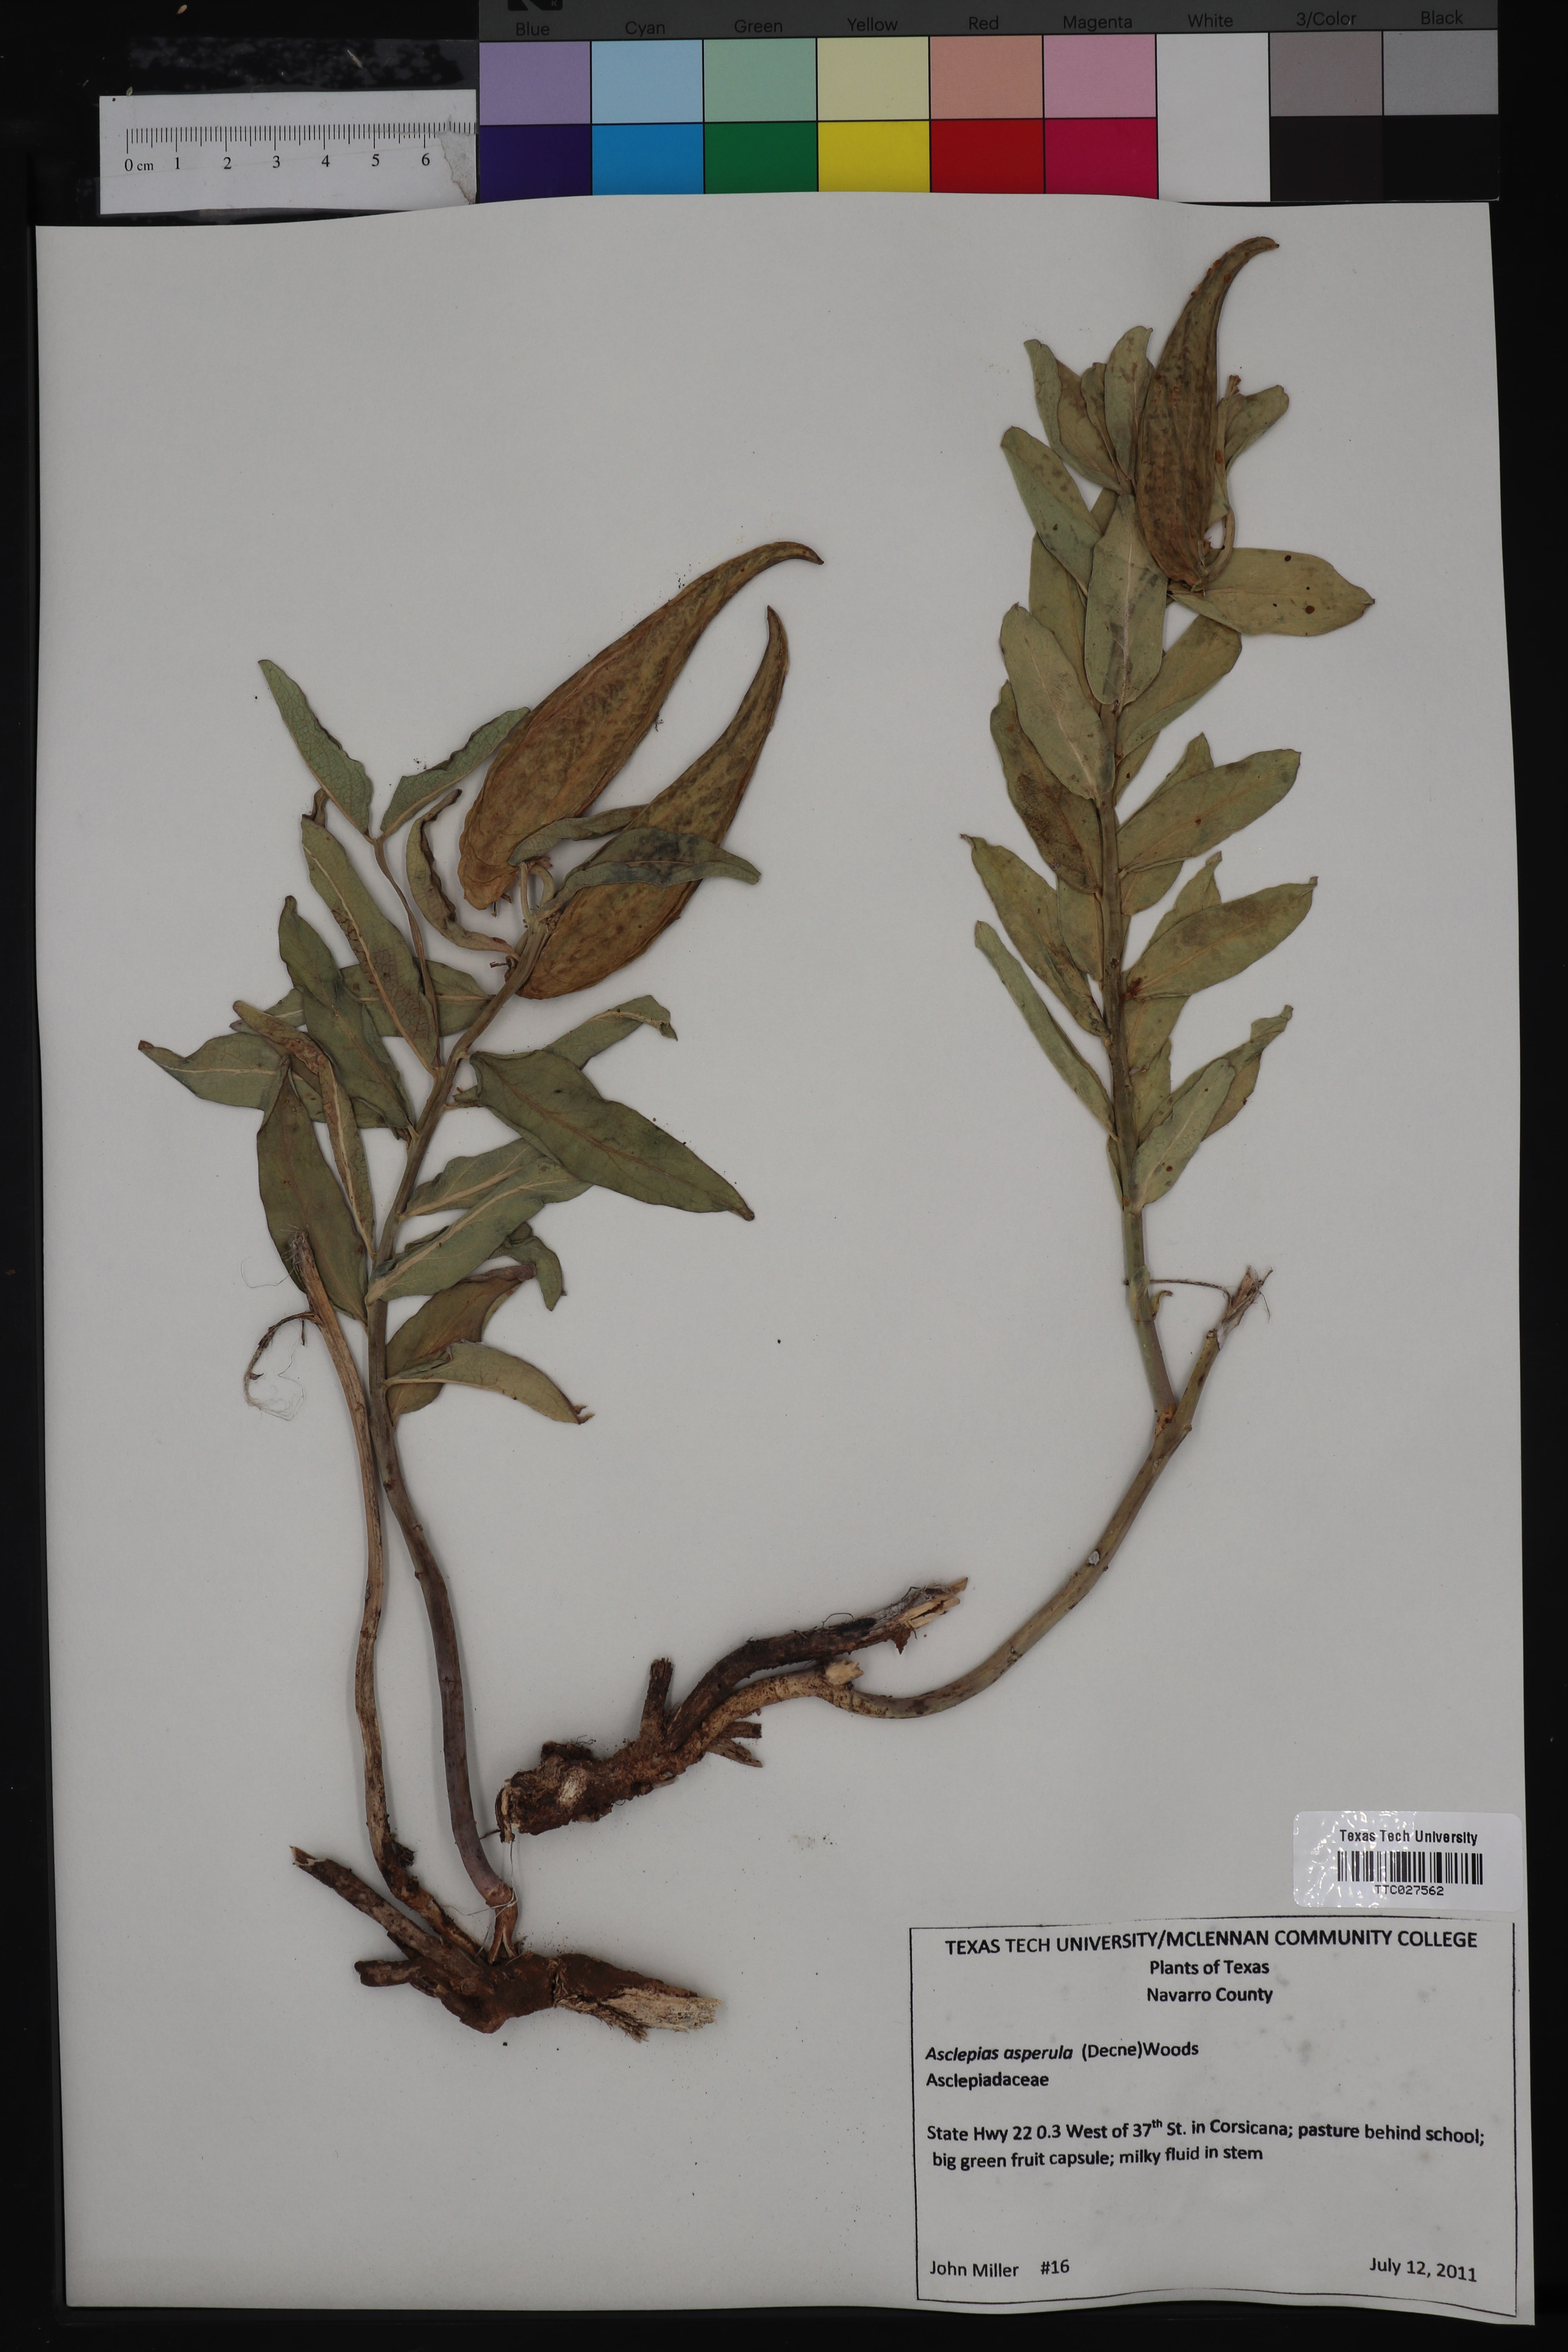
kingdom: Plantae
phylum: Tracheophyta
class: Magnoliopsida
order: Gentianales
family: Apocynaceae
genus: Asclepias
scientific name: Asclepias asperula
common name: Antelope horns
